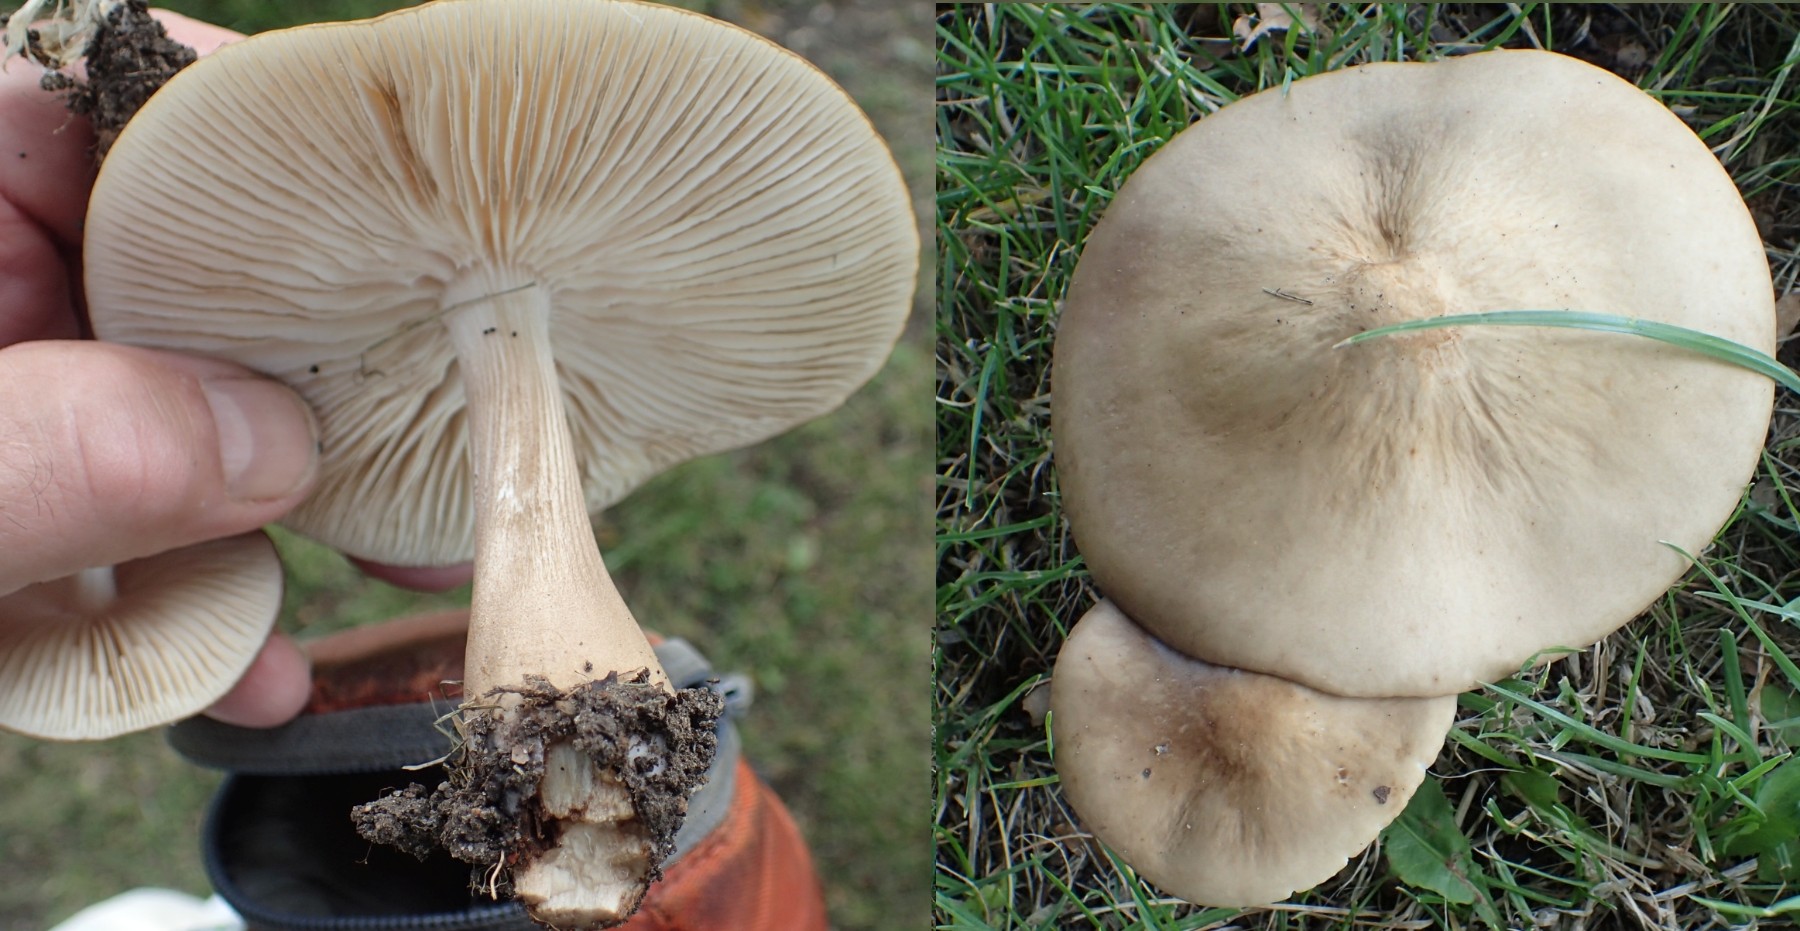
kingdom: Fungi
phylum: Basidiomycota
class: Agaricomycetes
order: Agaricales
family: Physalacriaceae
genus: Hymenopellis
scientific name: Hymenopellis radicata
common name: almindelig pælerodshat
